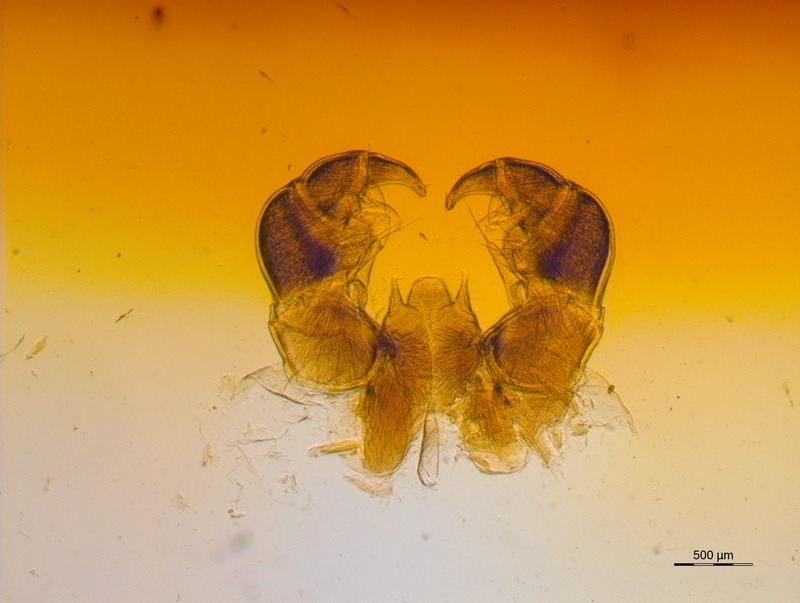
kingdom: Animalia
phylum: Arthropoda
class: Diplopoda
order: Glomerida
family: Glomeridae
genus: Glomeris
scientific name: Glomeris pulchra
